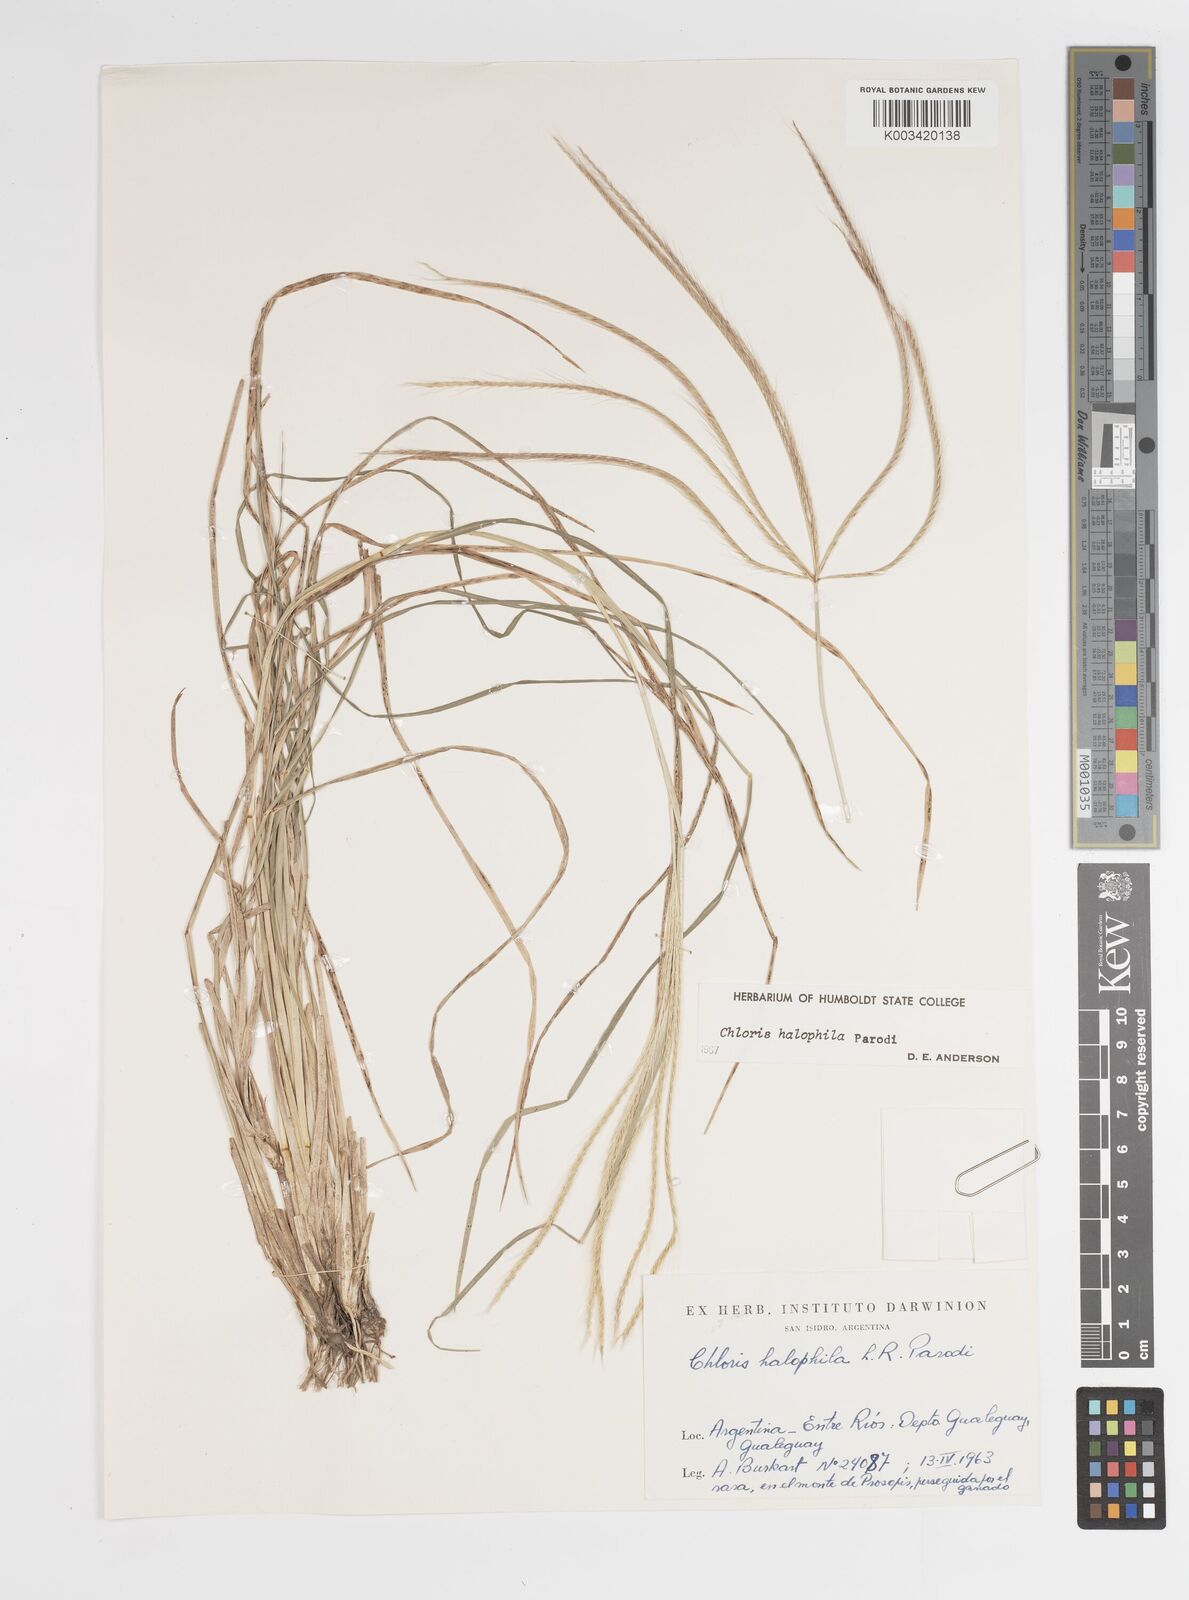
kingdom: Plantae
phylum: Tracheophyta
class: Liliopsida
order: Poales
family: Poaceae
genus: Chloris
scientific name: Chloris halophila
